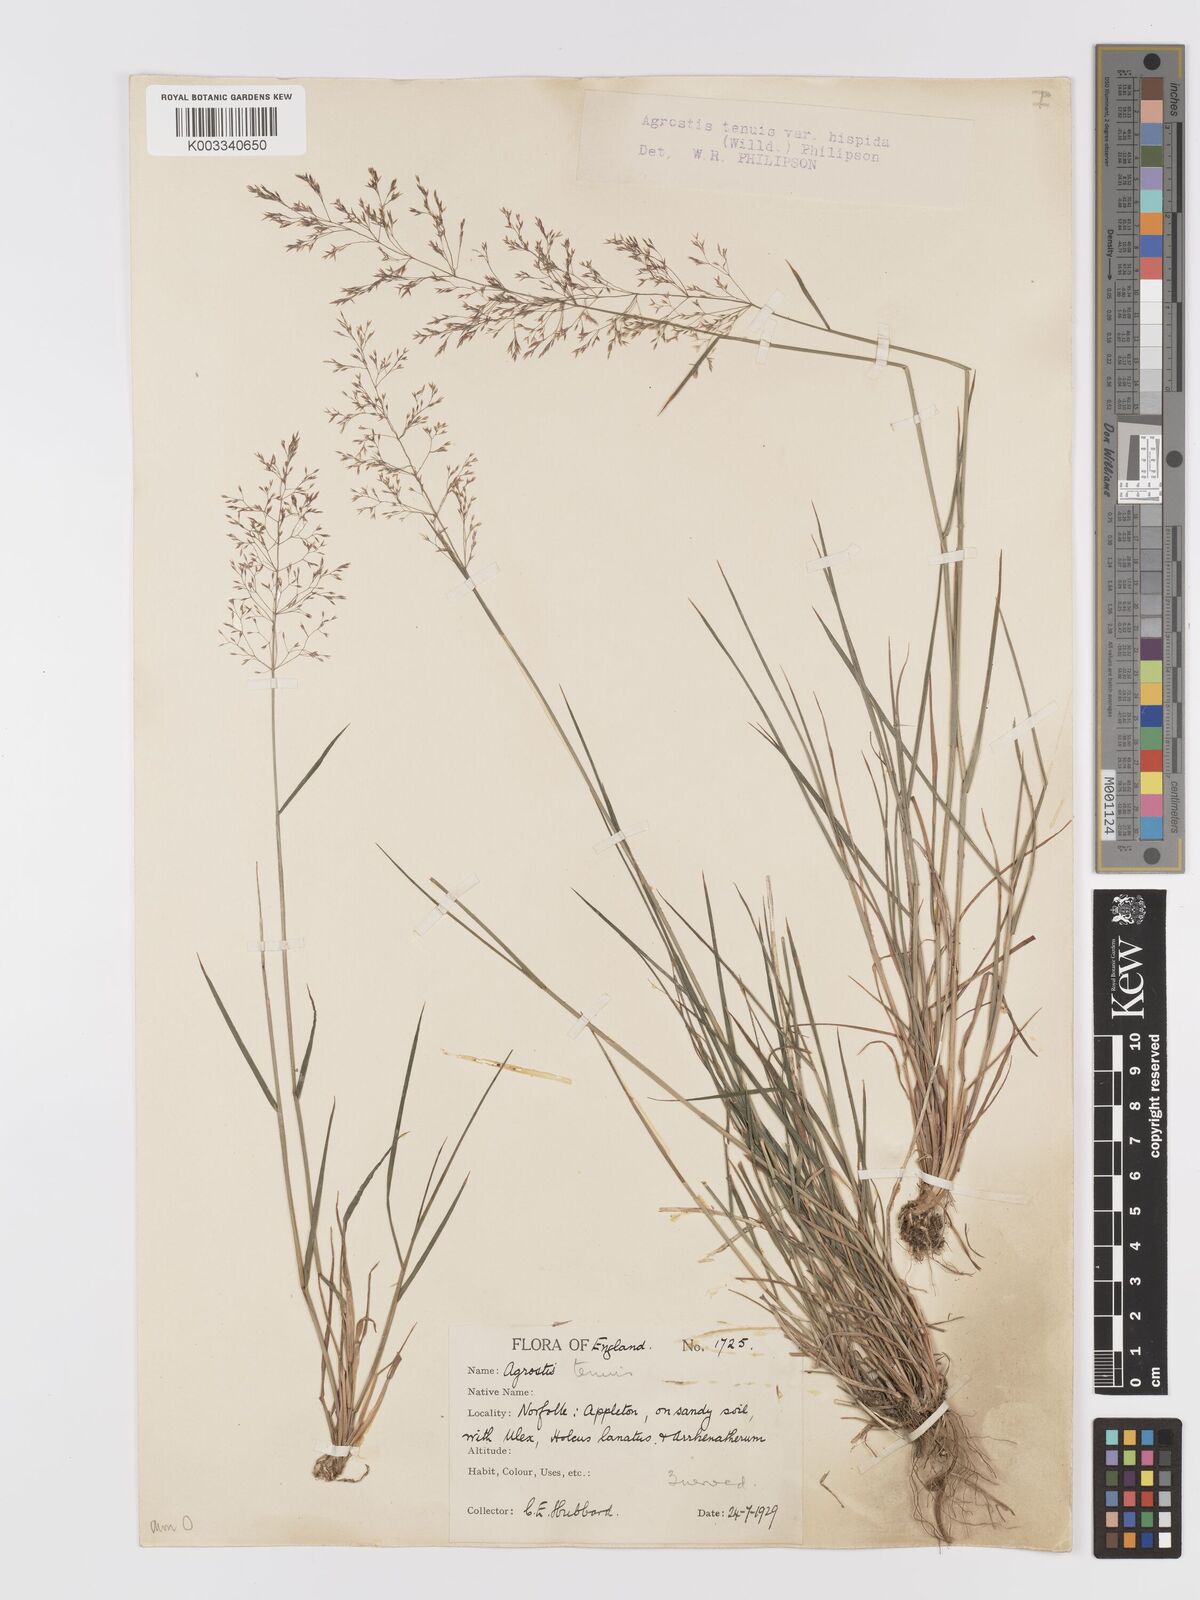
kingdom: Plantae
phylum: Tracheophyta
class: Liliopsida
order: Poales
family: Poaceae
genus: Agrostis
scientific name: Agrostis capillaris
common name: Colonial bentgrass
